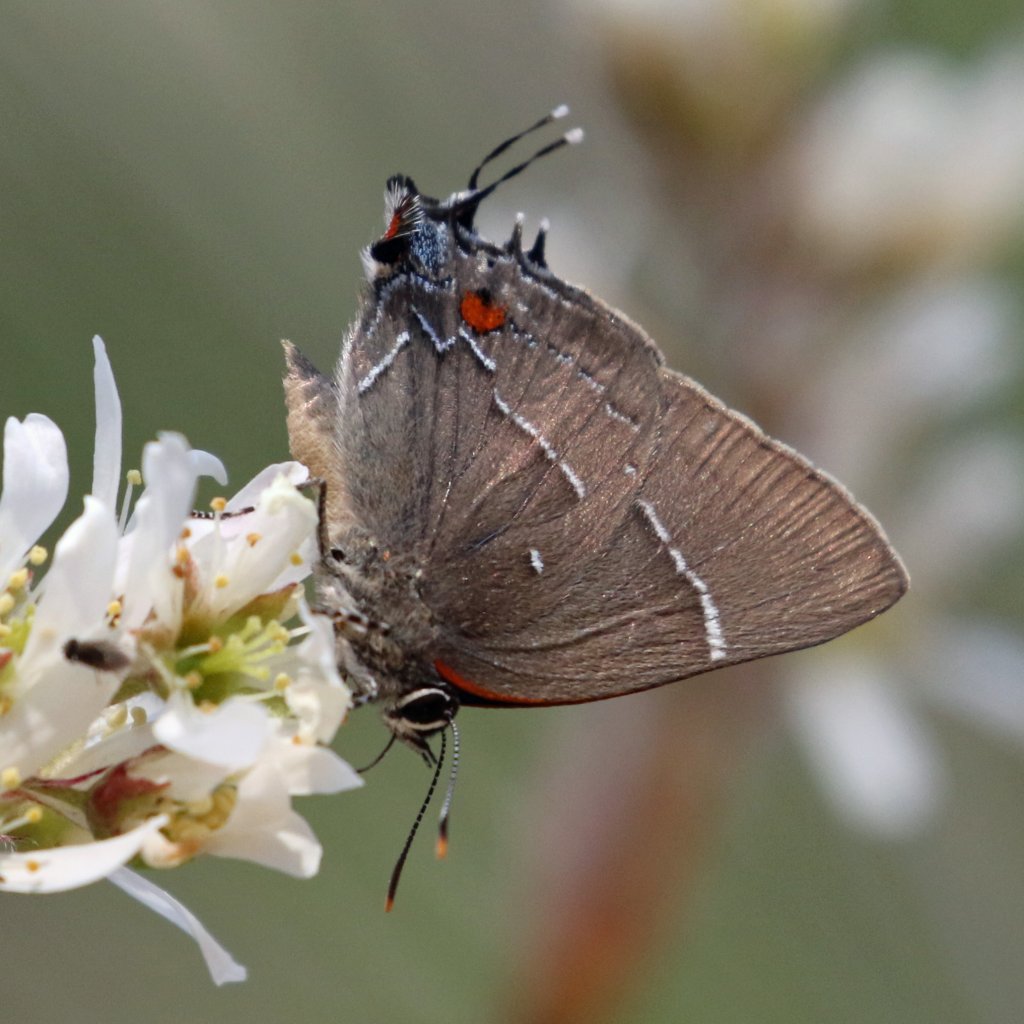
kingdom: Animalia
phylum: Arthropoda
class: Insecta
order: Lepidoptera
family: Lycaenidae
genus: Parrhasius
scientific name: Parrhasius m-album
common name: White-m Hairstreak
